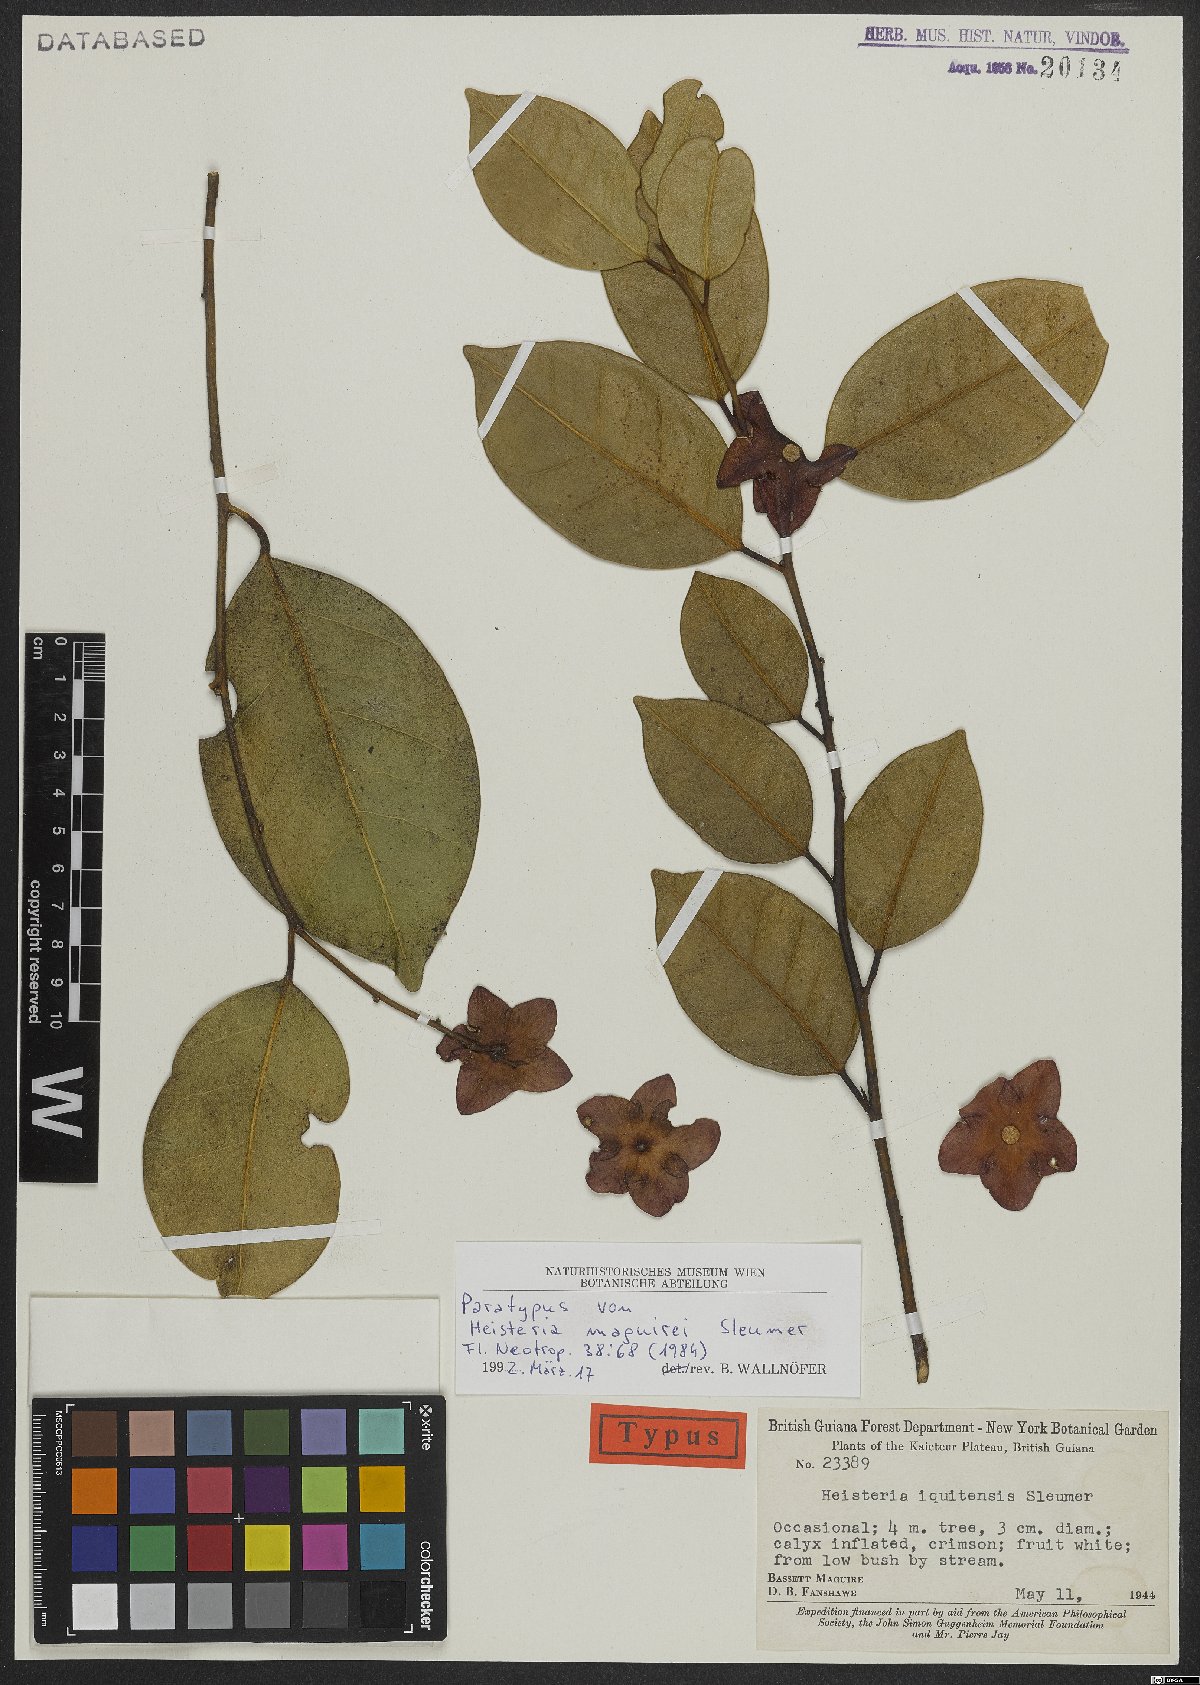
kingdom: Plantae
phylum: Tracheophyta
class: Magnoliopsida
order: Santalales
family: Erythropalaceae
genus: Heisteria
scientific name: Heisteria maguirei
